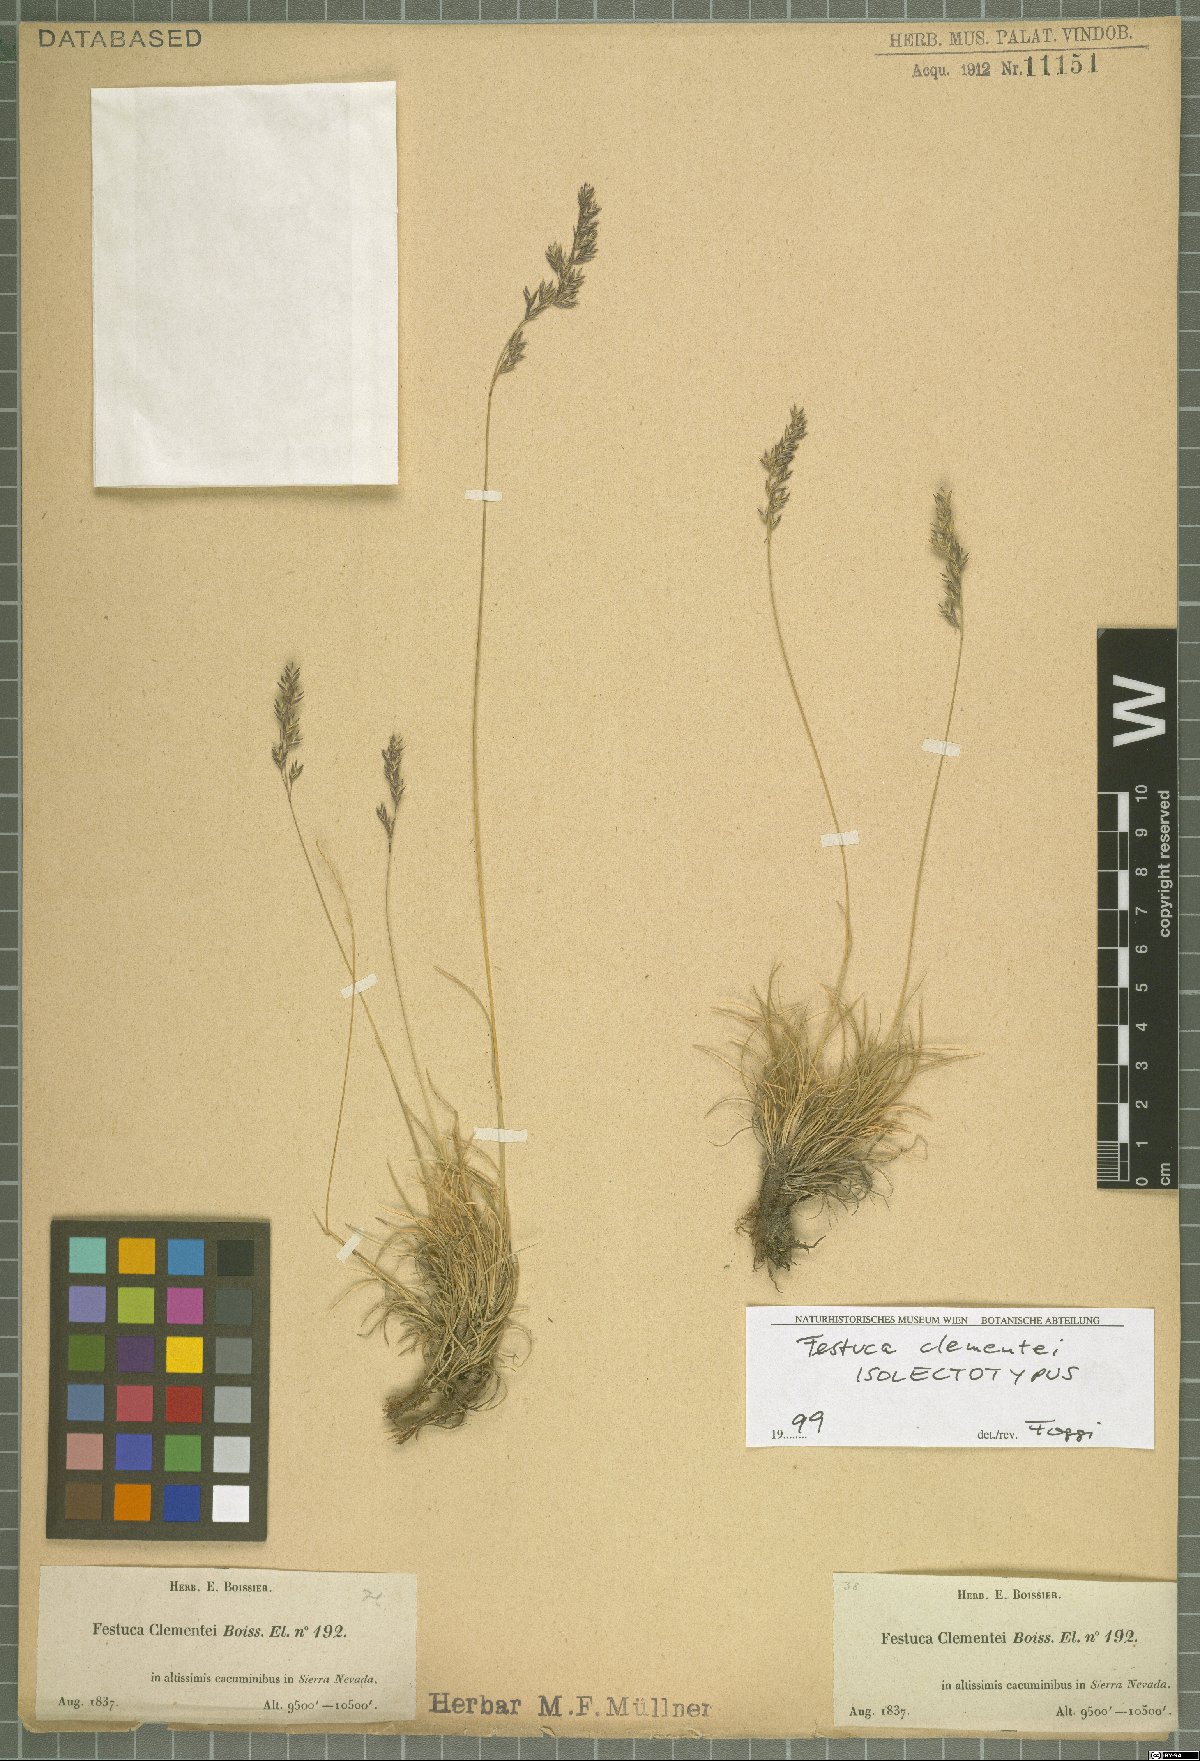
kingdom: Plantae
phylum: Tracheophyta
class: Liliopsida
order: Poales
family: Poaceae
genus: Festuca
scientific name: Festuca clementei
